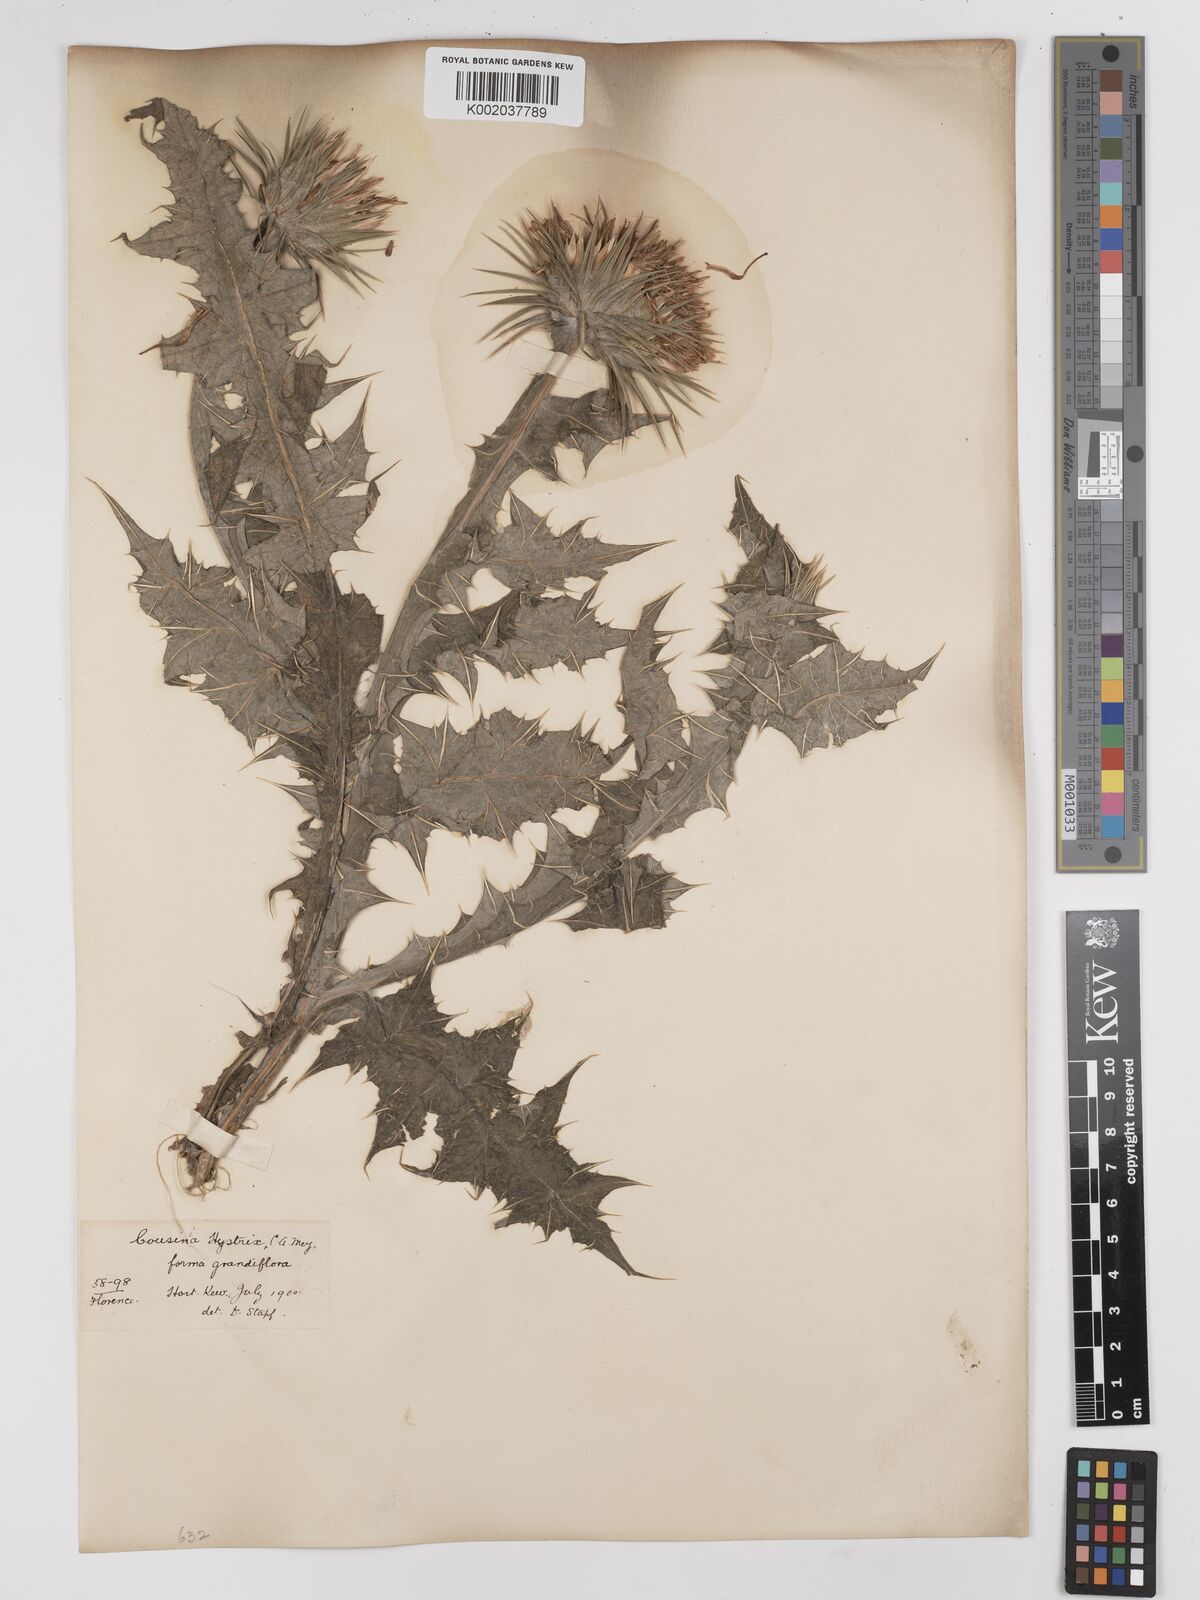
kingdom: Plantae
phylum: Tracheophyta
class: Magnoliopsida
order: Asterales
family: Asteraceae
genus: Cousinia
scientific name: Cousinia pterocaulos
